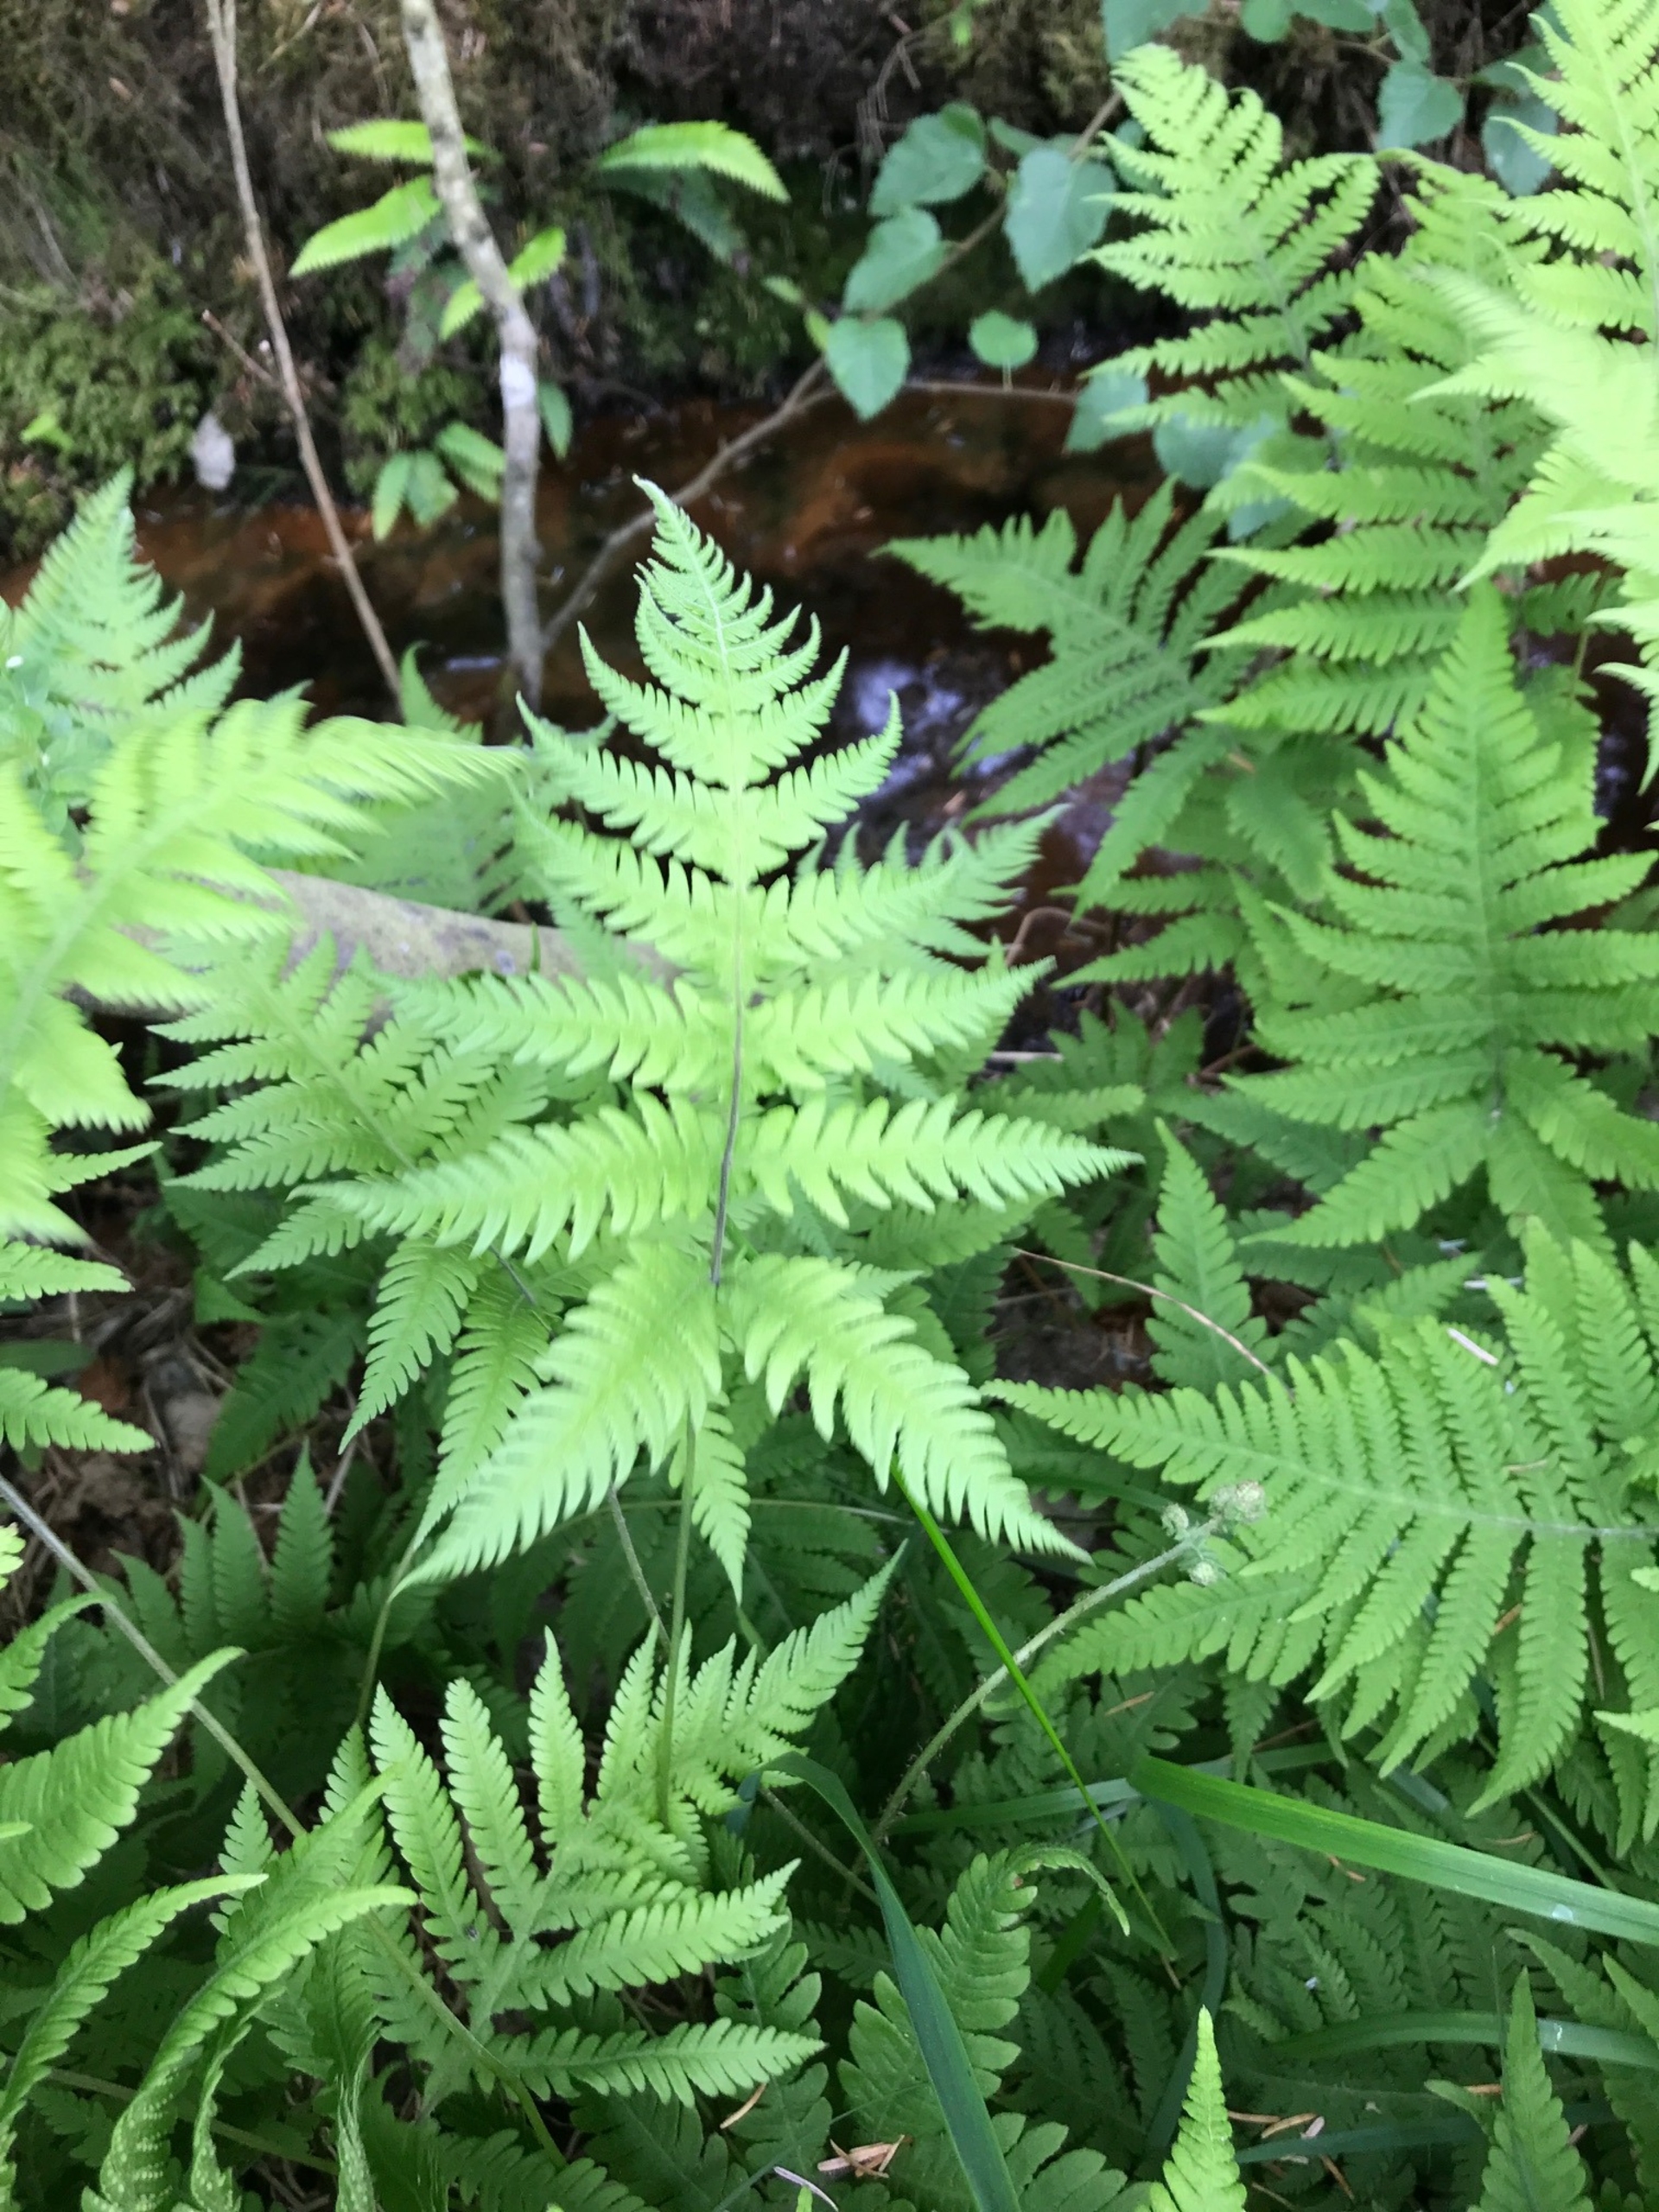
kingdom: Plantae
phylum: Tracheophyta
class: Polypodiopsida
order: Polypodiales
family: Thelypteridaceae
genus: Phegopteris
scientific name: Phegopteris connectilis
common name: Dunet egebregne
